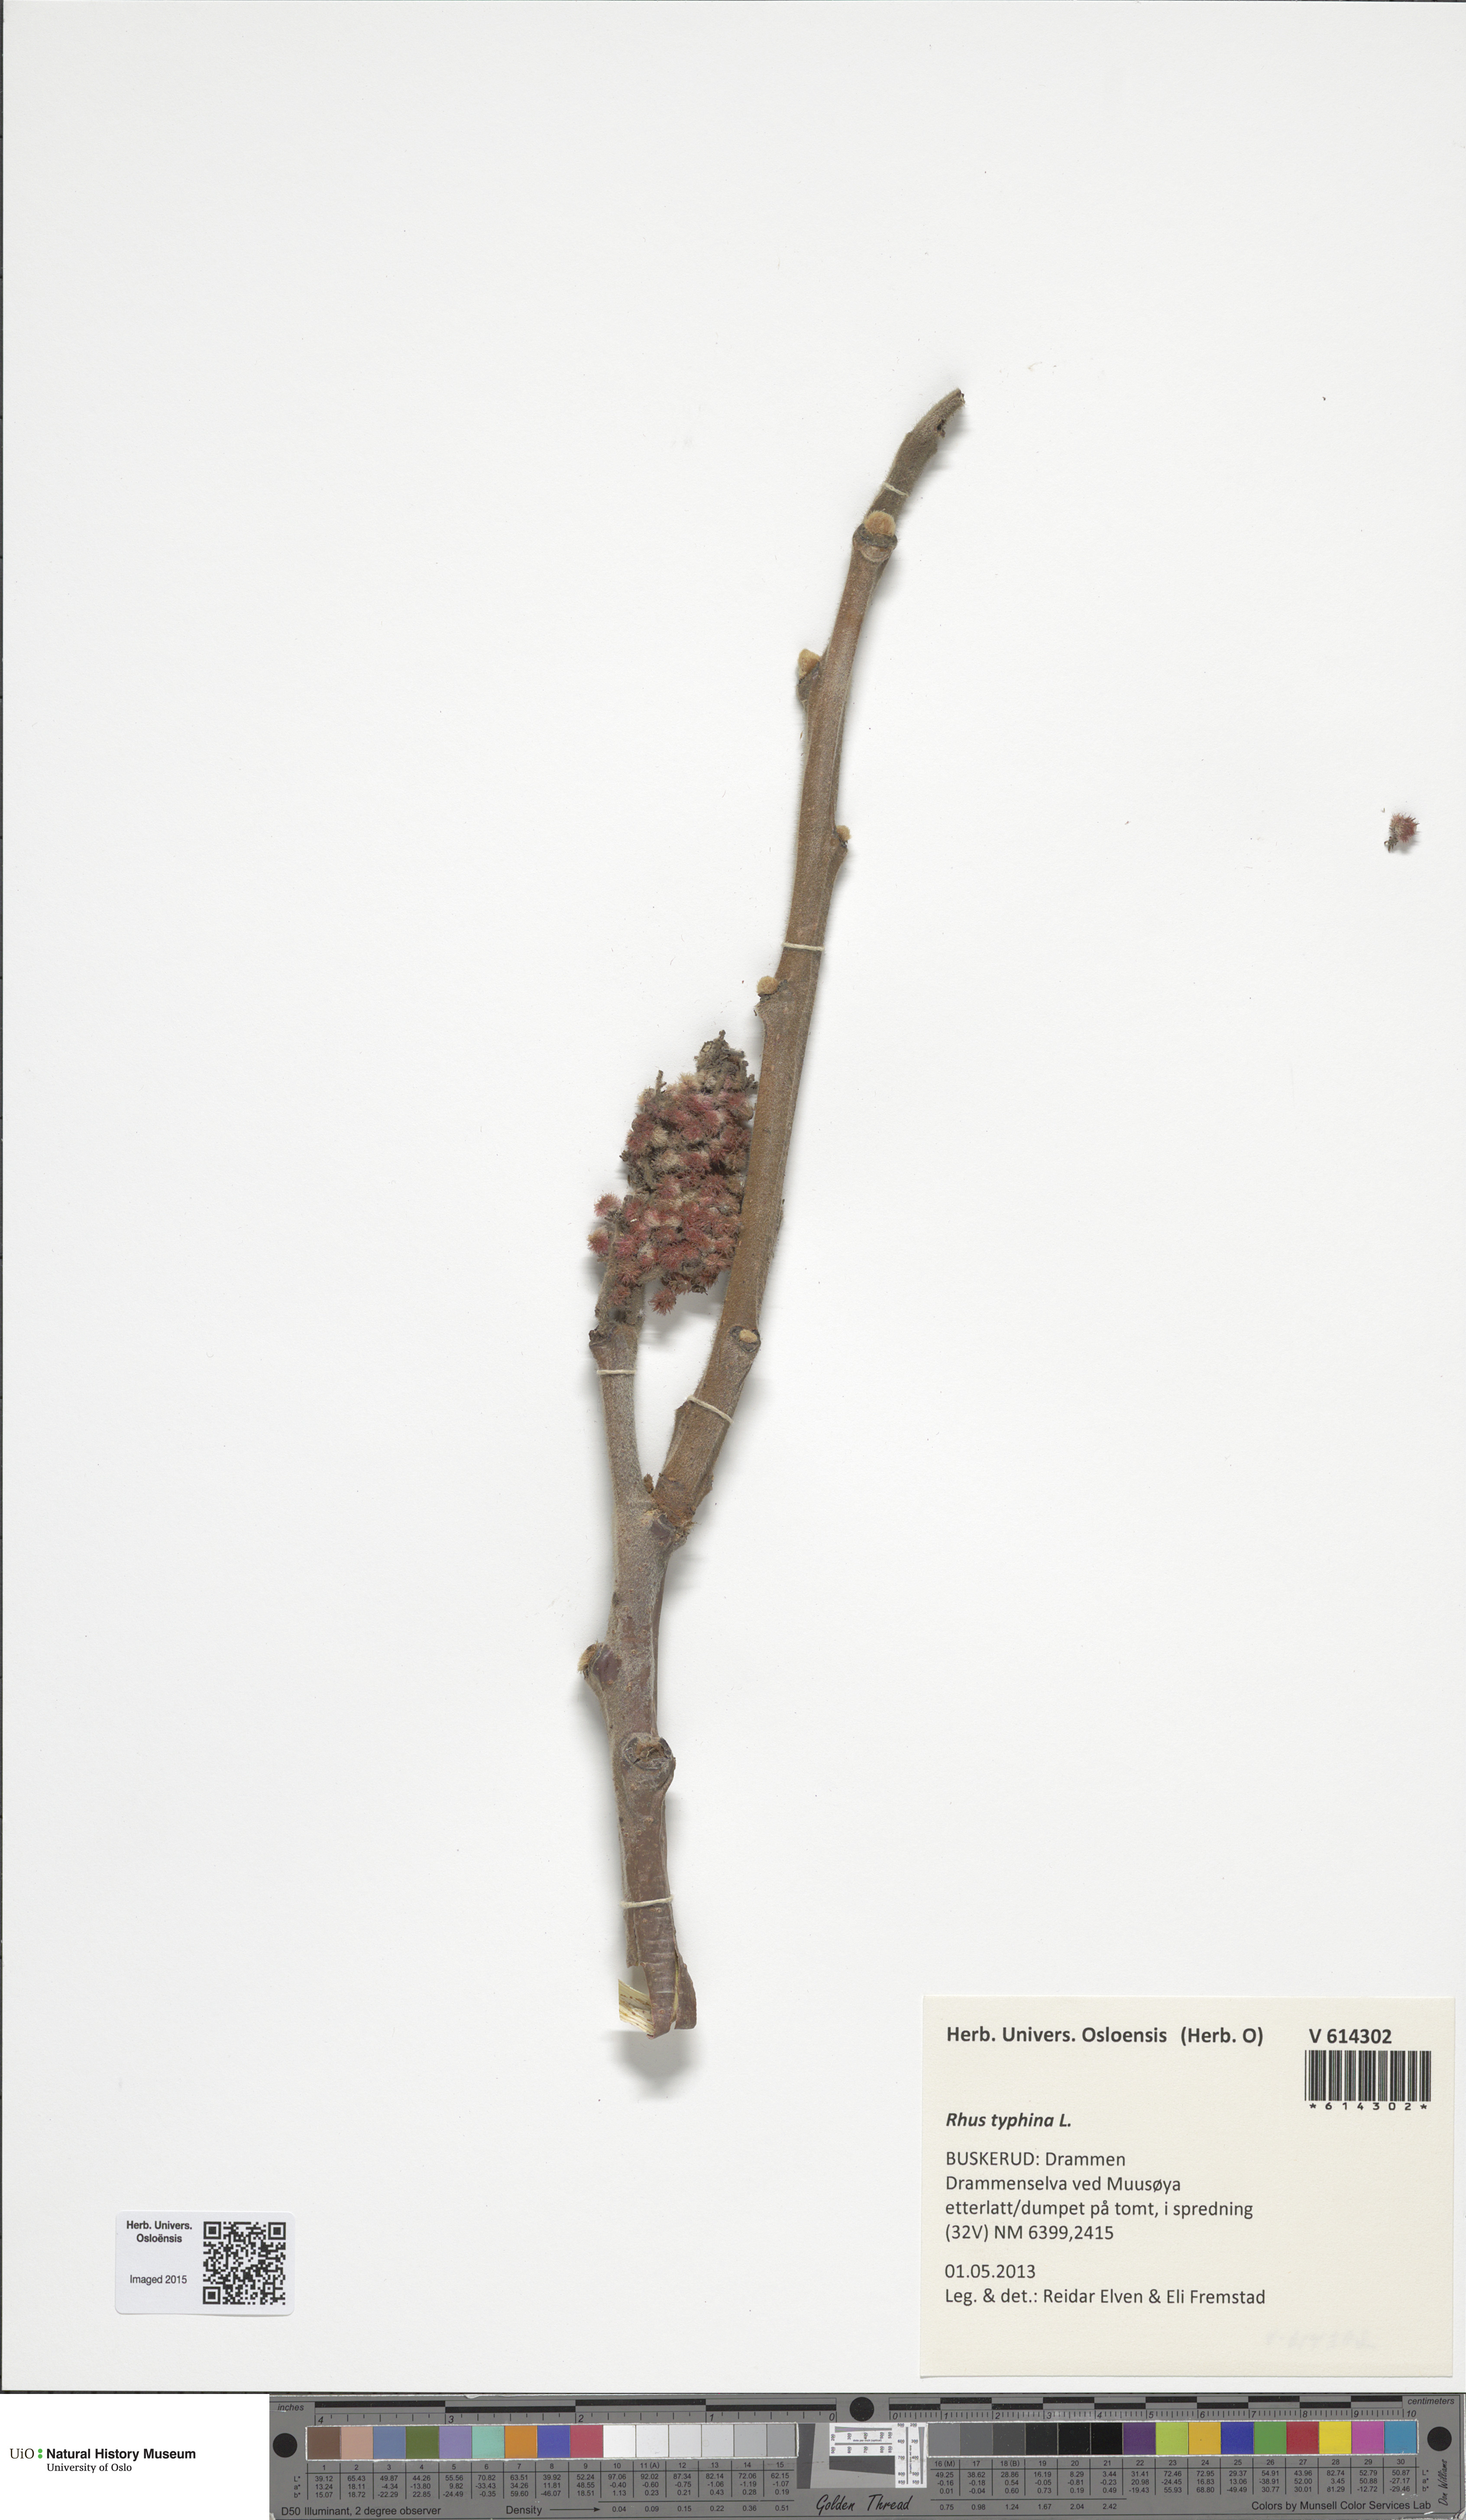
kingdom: Plantae
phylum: Tracheophyta
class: Magnoliopsida
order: Sapindales
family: Anacardiaceae
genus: Rhus
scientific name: Rhus typhina
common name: Staghorn sumac
